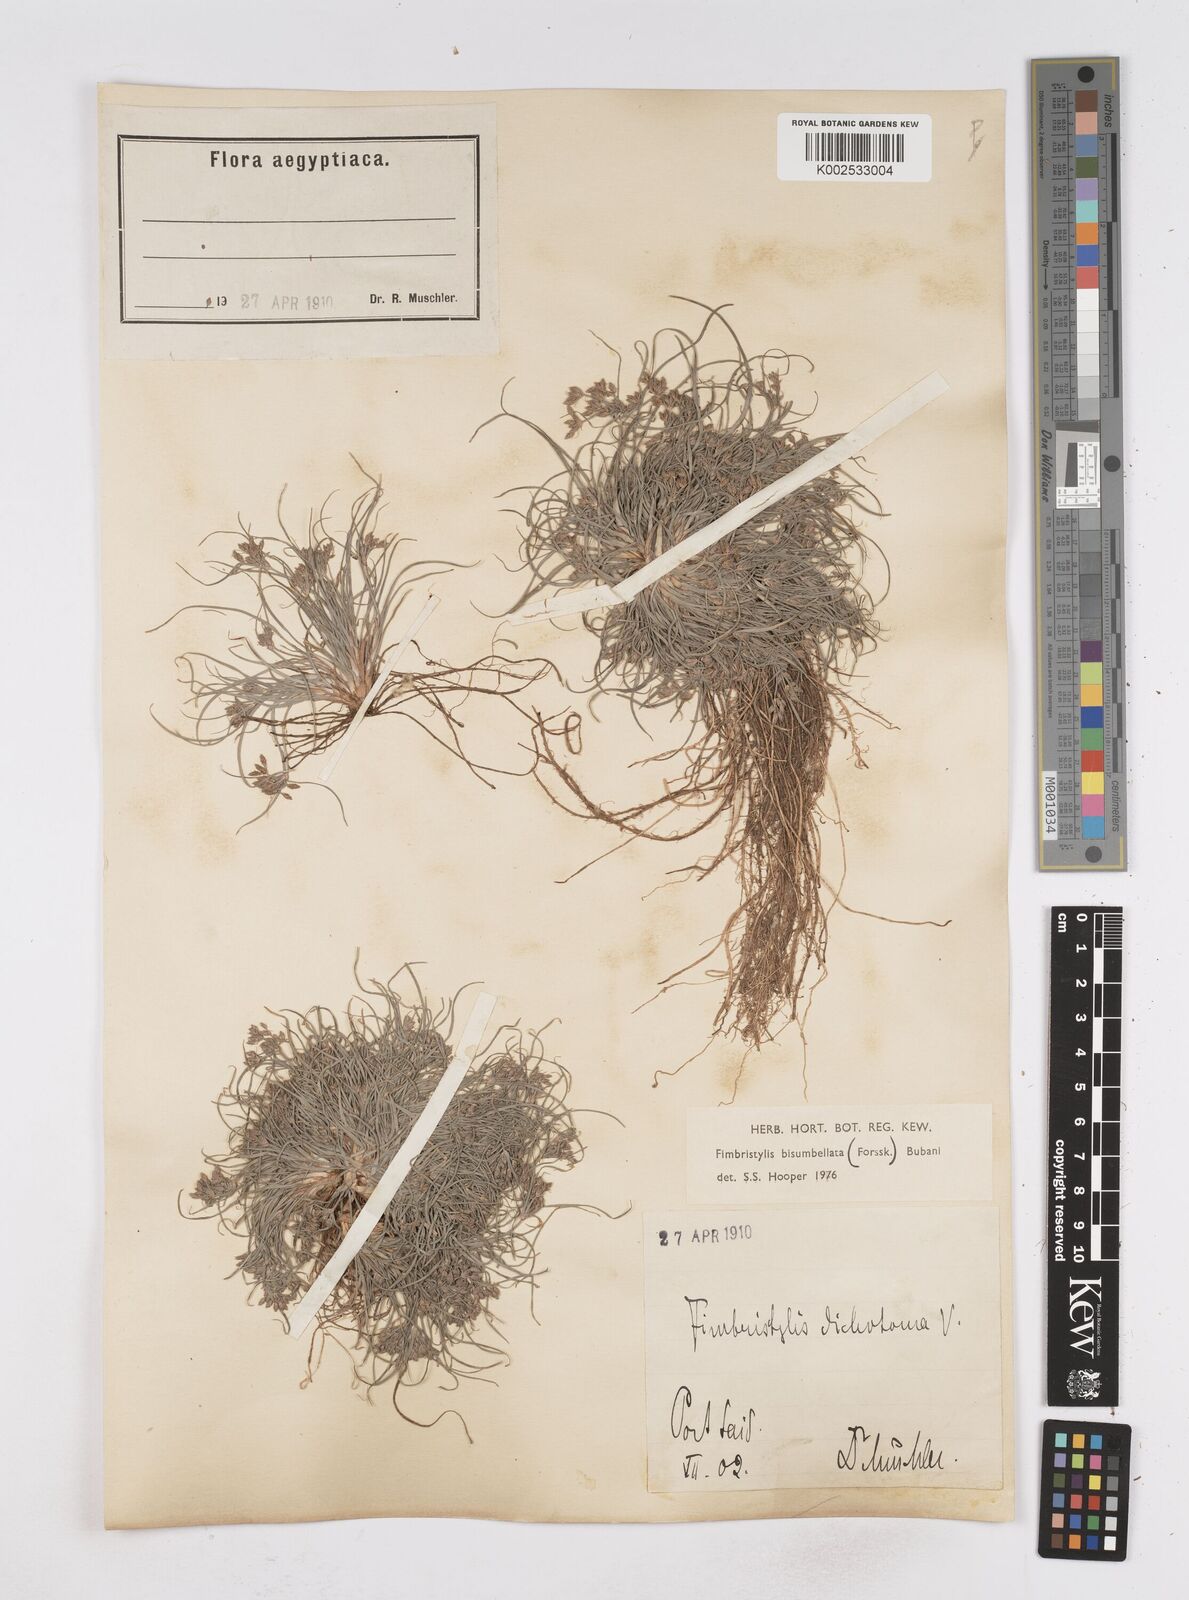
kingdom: Plantae
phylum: Tracheophyta
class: Liliopsida
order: Poales
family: Cyperaceae
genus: Fimbristylis
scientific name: Fimbristylis bisumbellata
